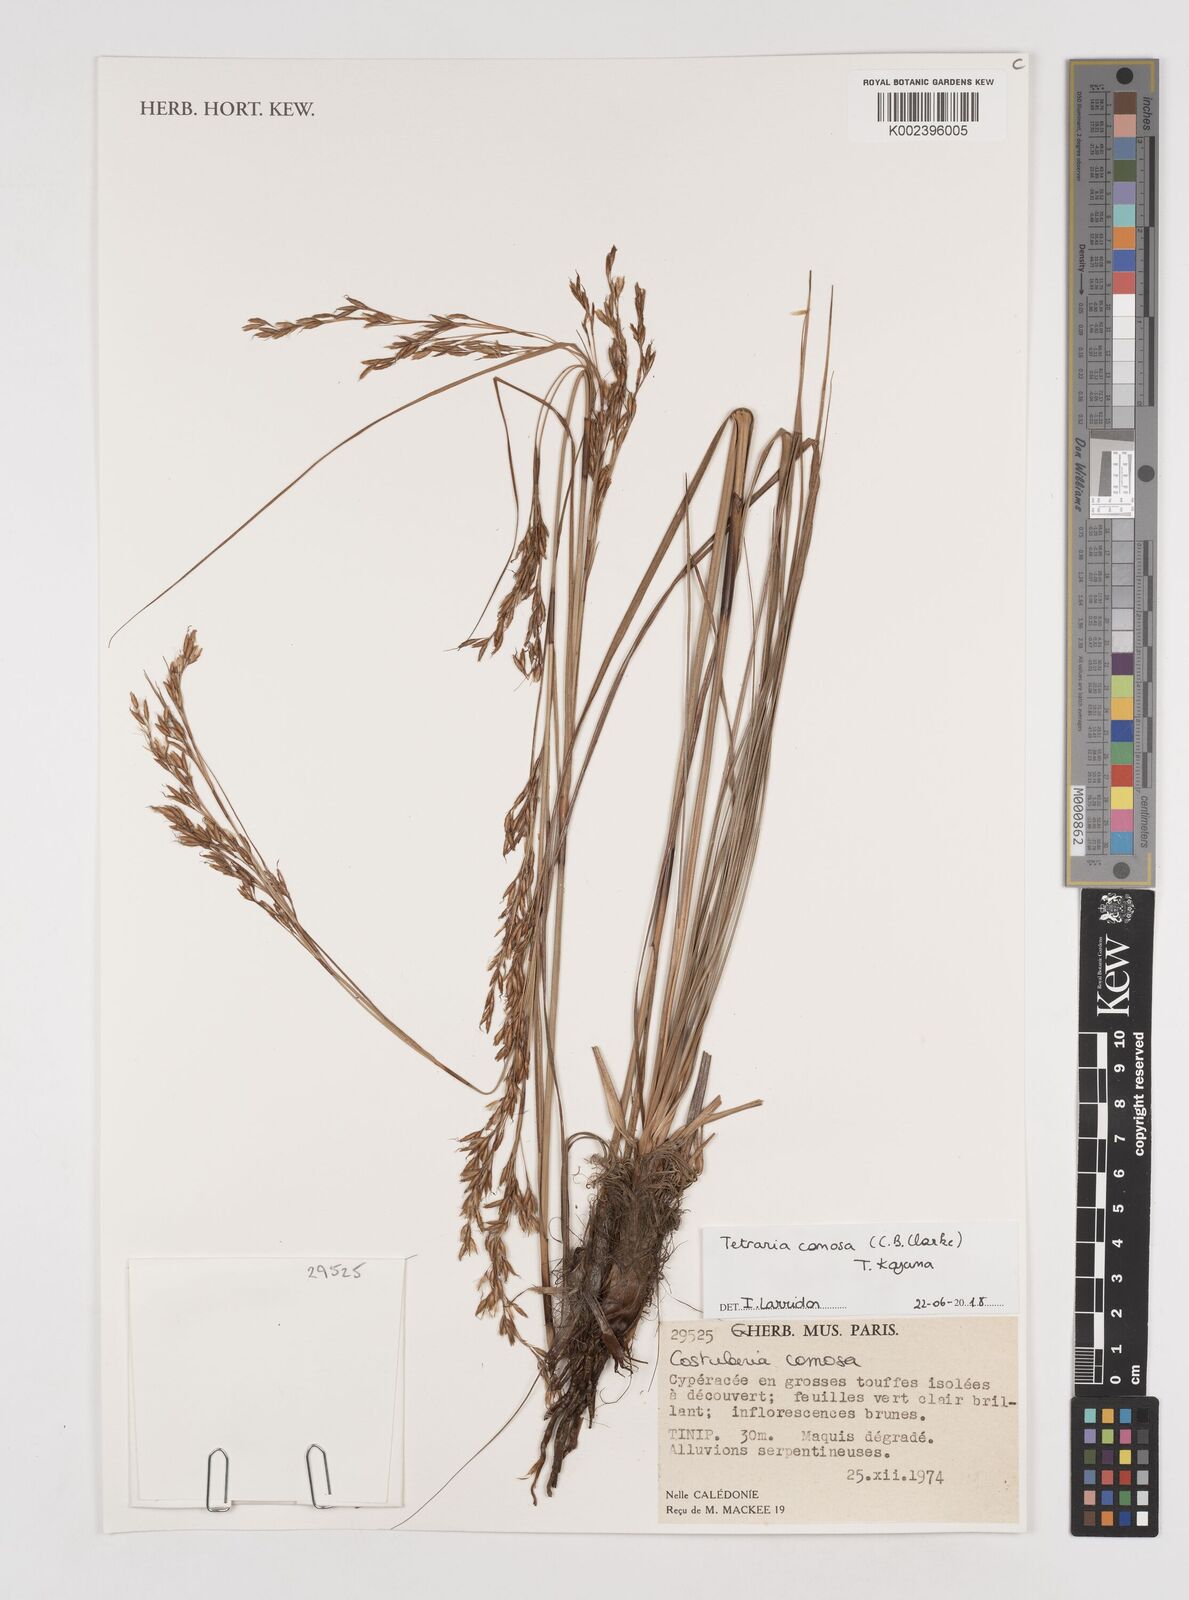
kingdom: Plantae
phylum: Tracheophyta
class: Liliopsida
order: Poales
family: Cyperaceae
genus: Tetraria
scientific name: Tetraria comosa
